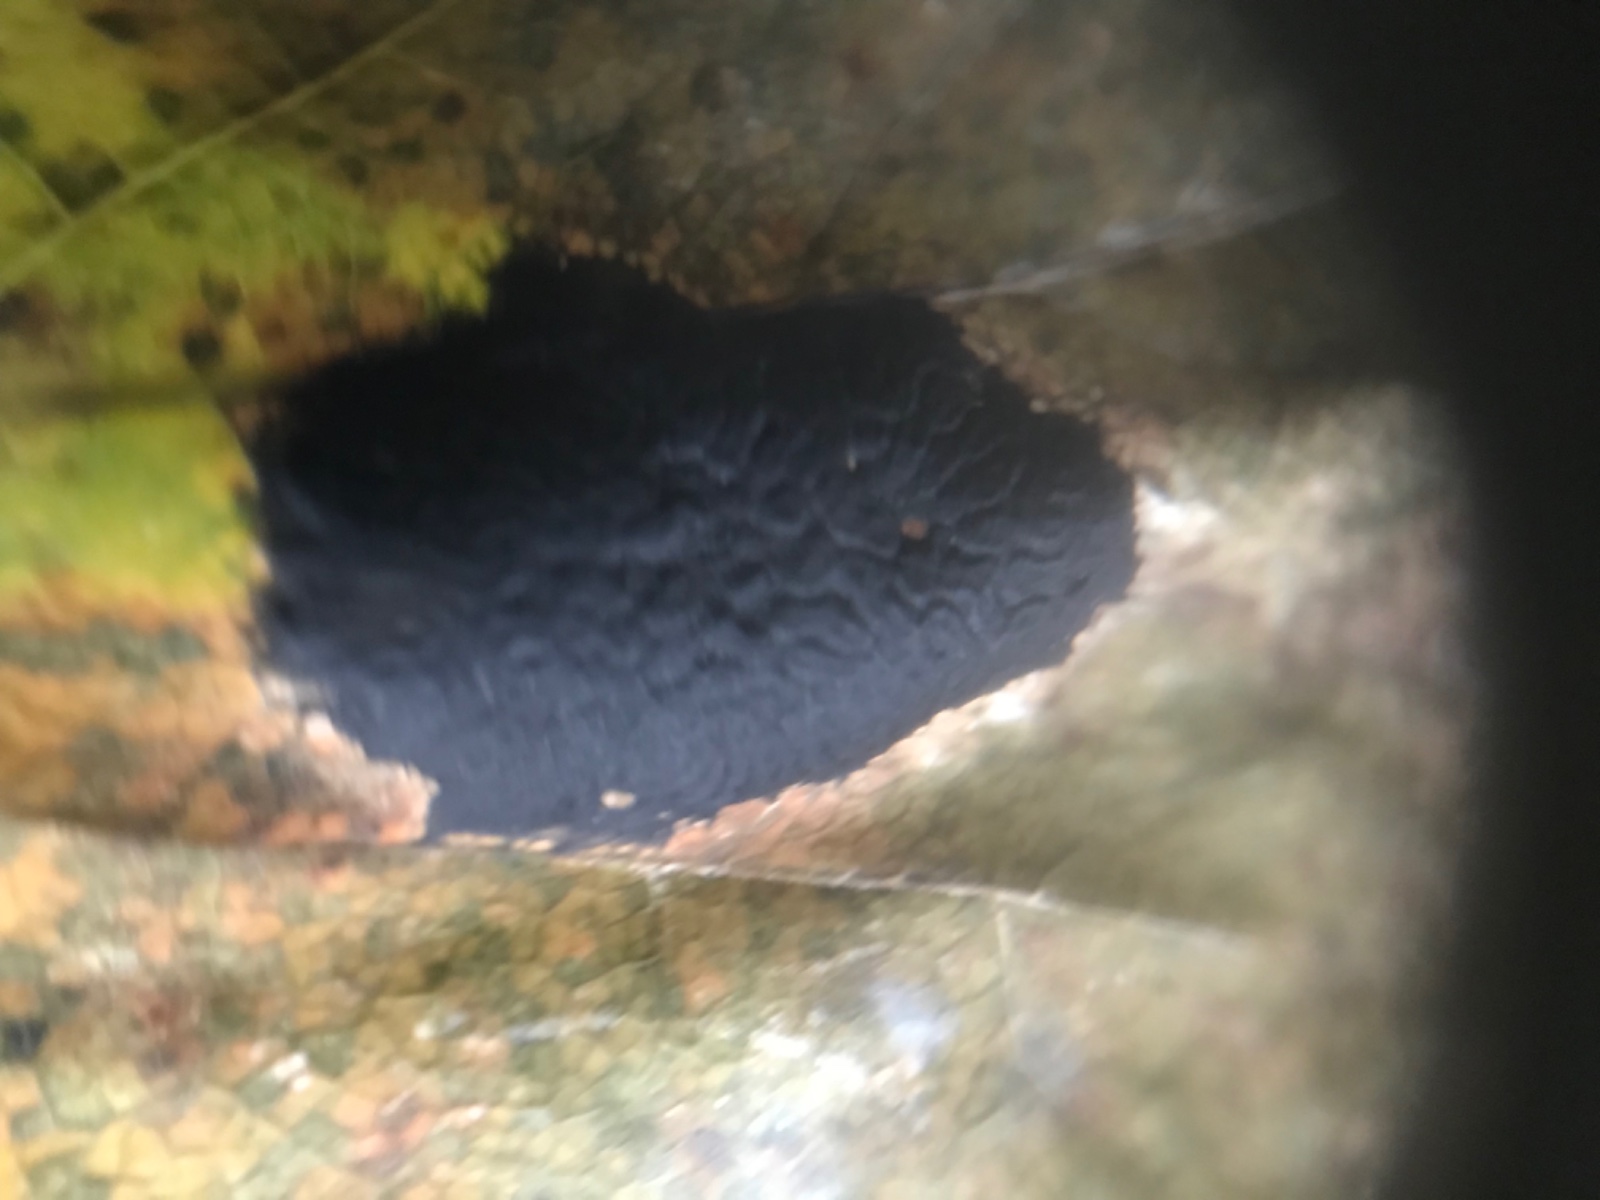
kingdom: Fungi
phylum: Ascomycota
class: Leotiomycetes
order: Rhytismatales
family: Rhytismataceae
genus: Rhytisma
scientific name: Rhytisma acerinum
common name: ahorn-rynkeplet
